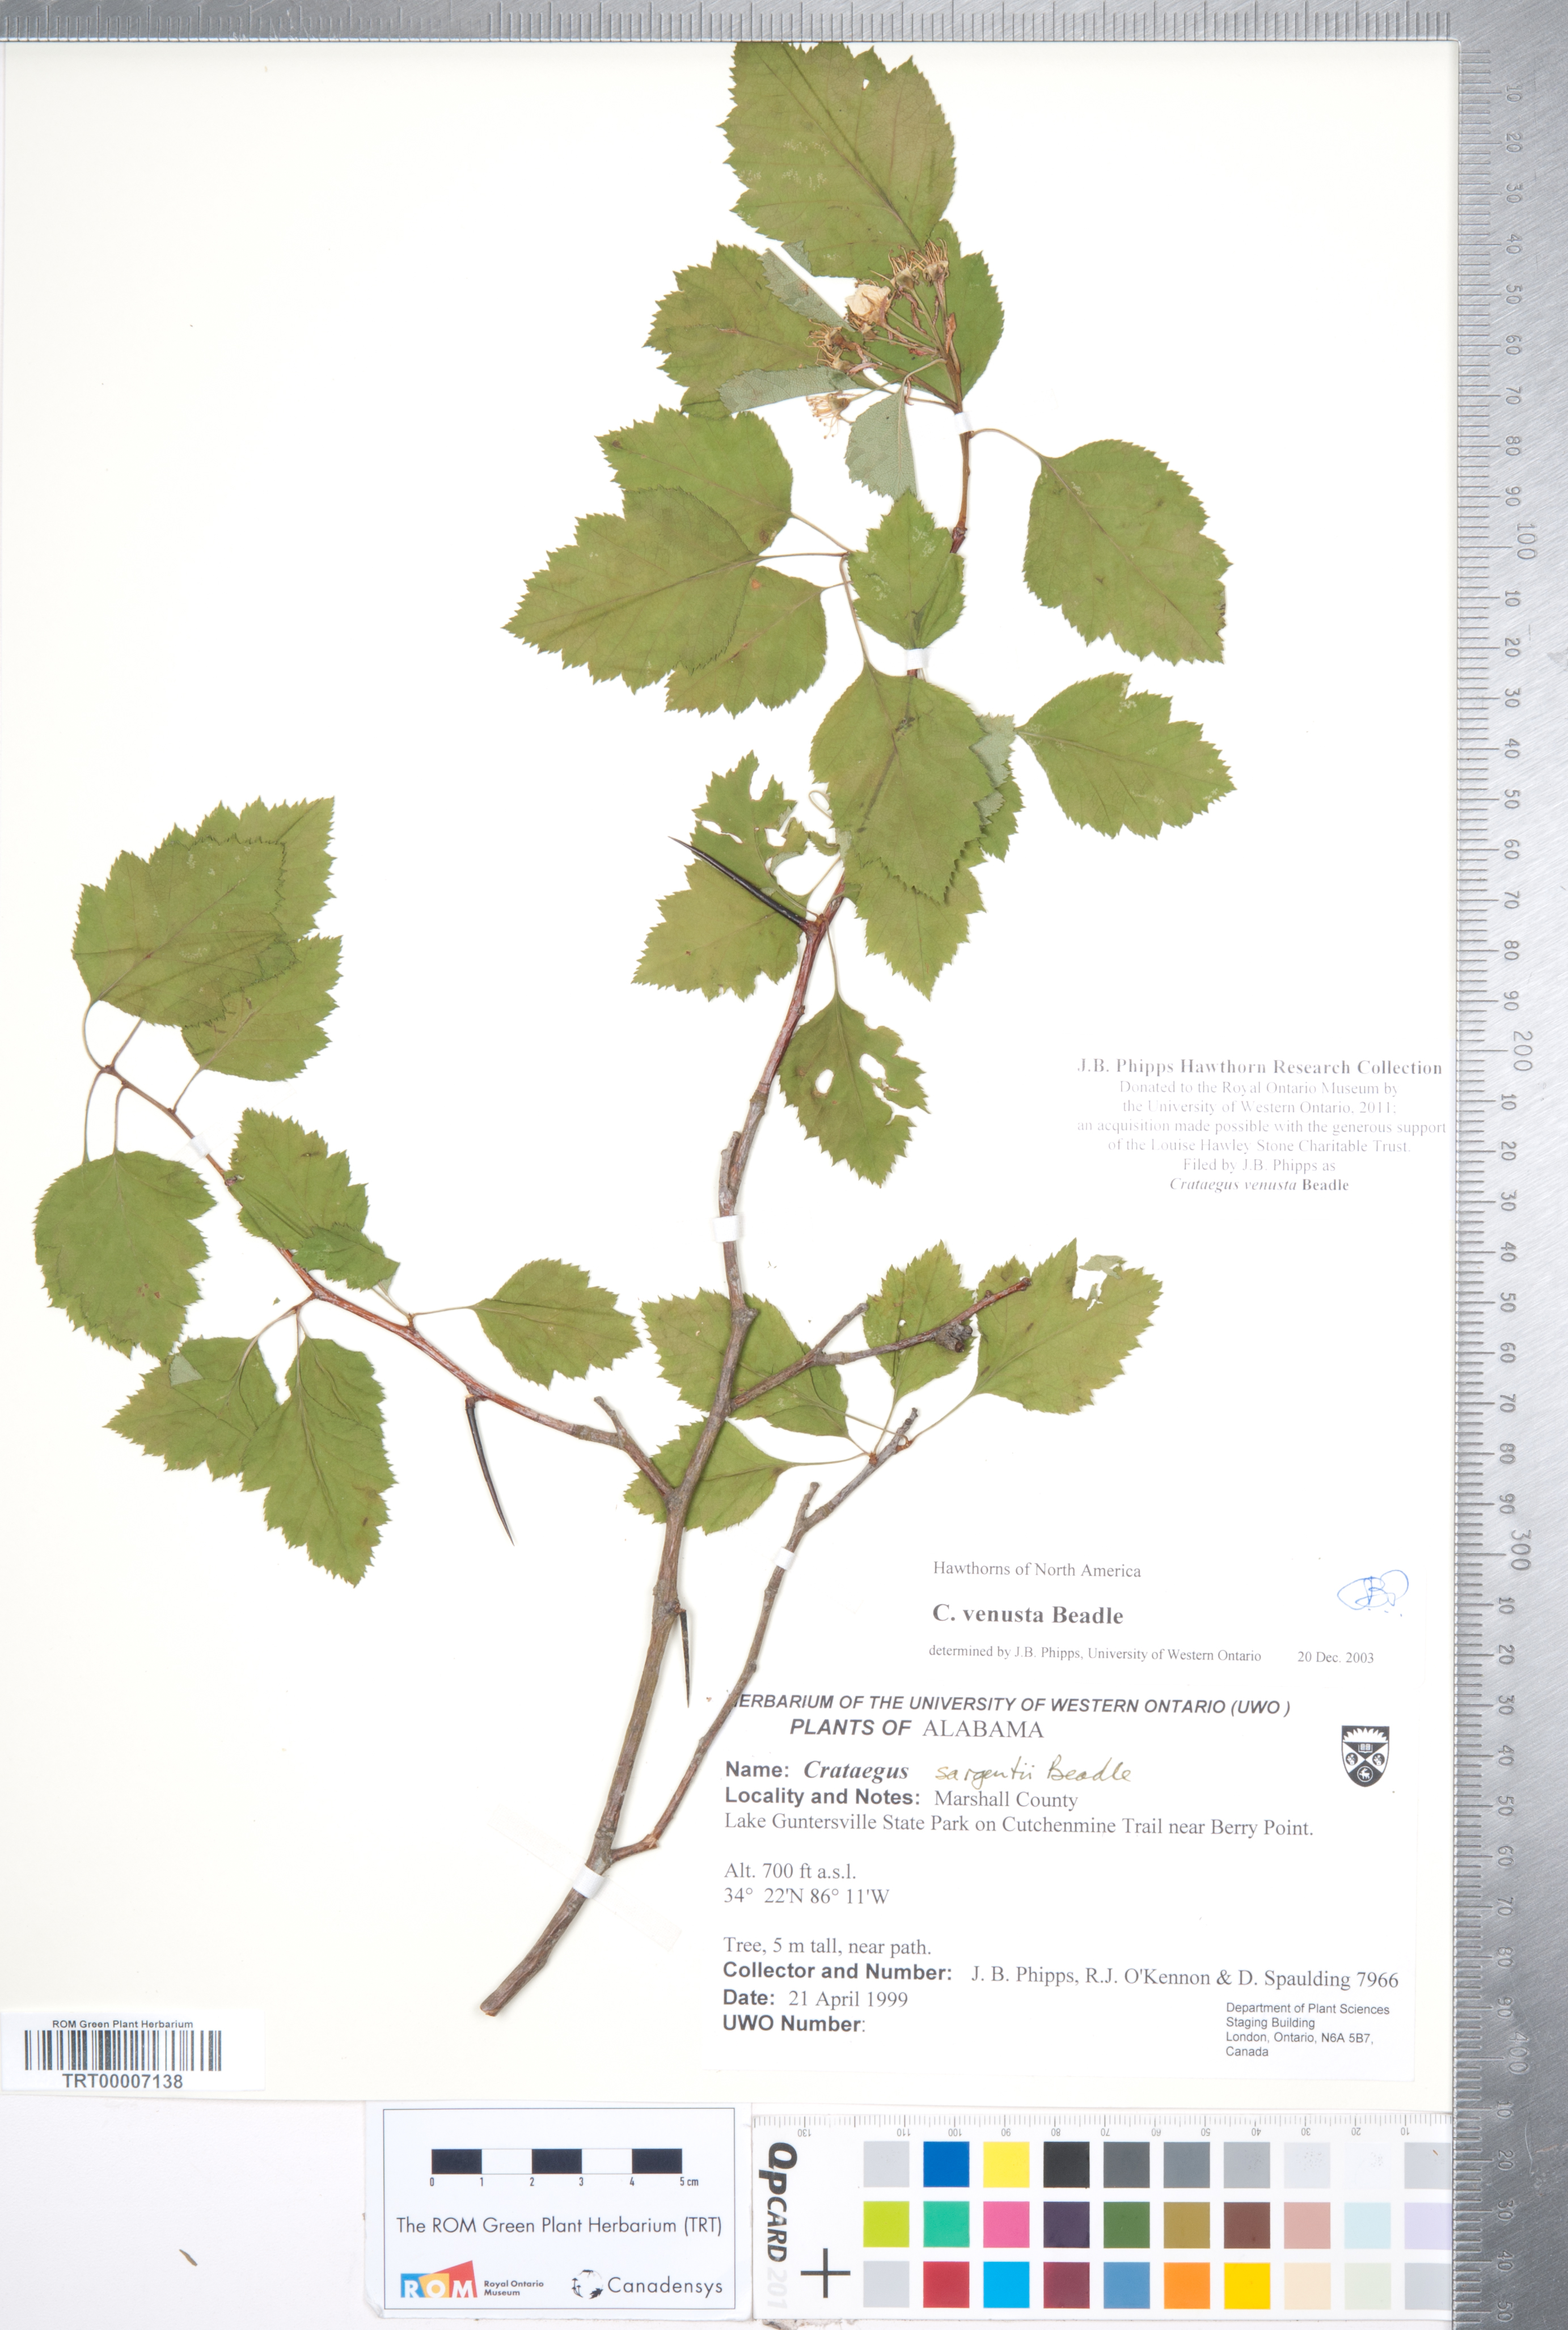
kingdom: Plantae
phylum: Tracheophyta
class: Magnoliopsida
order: Rosales
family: Rosaceae
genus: Crataegus
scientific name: Crataegus venusta
